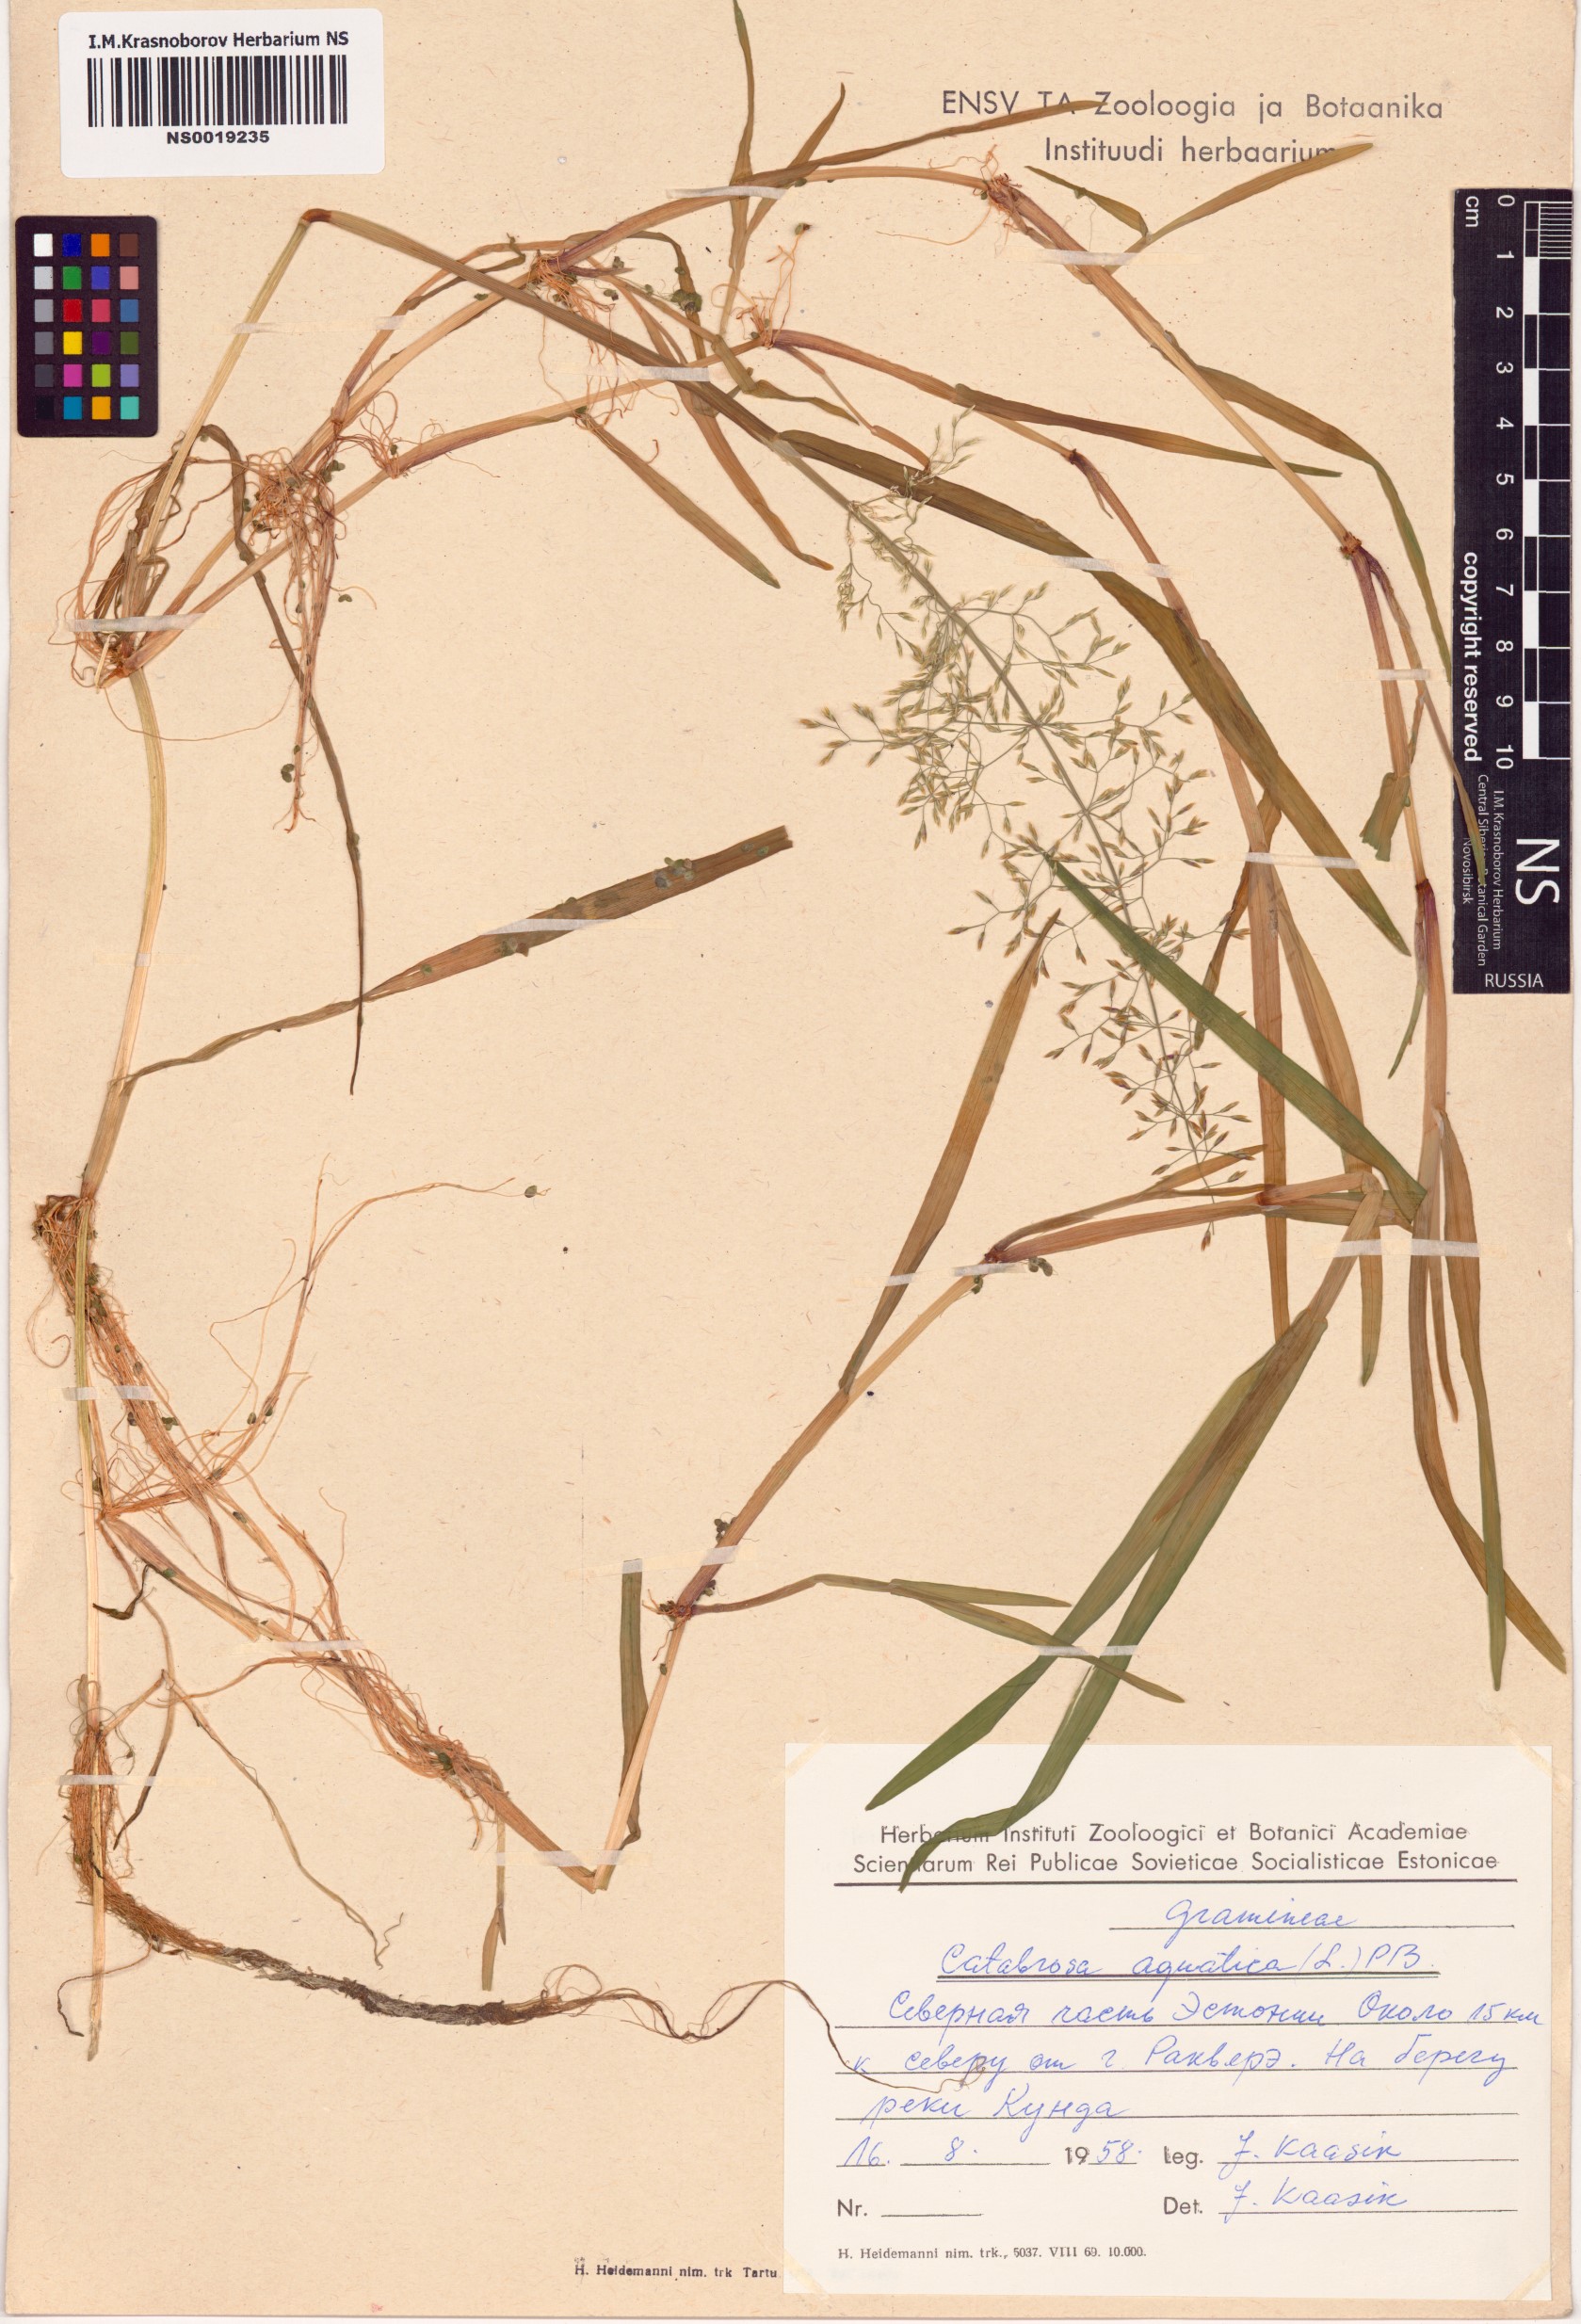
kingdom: Plantae
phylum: Tracheophyta
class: Liliopsida
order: Poales
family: Poaceae
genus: Catabrosa
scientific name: Catabrosa aquatica
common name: Whorl-grass
